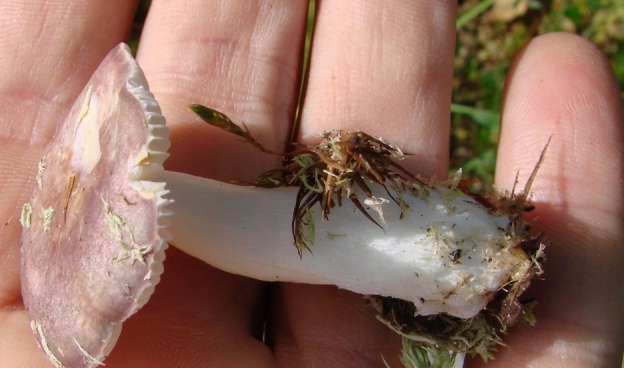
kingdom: Fungi
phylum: Basidiomycota
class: Agaricomycetes
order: Russulales
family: Russulaceae
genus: Russula
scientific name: Russula
